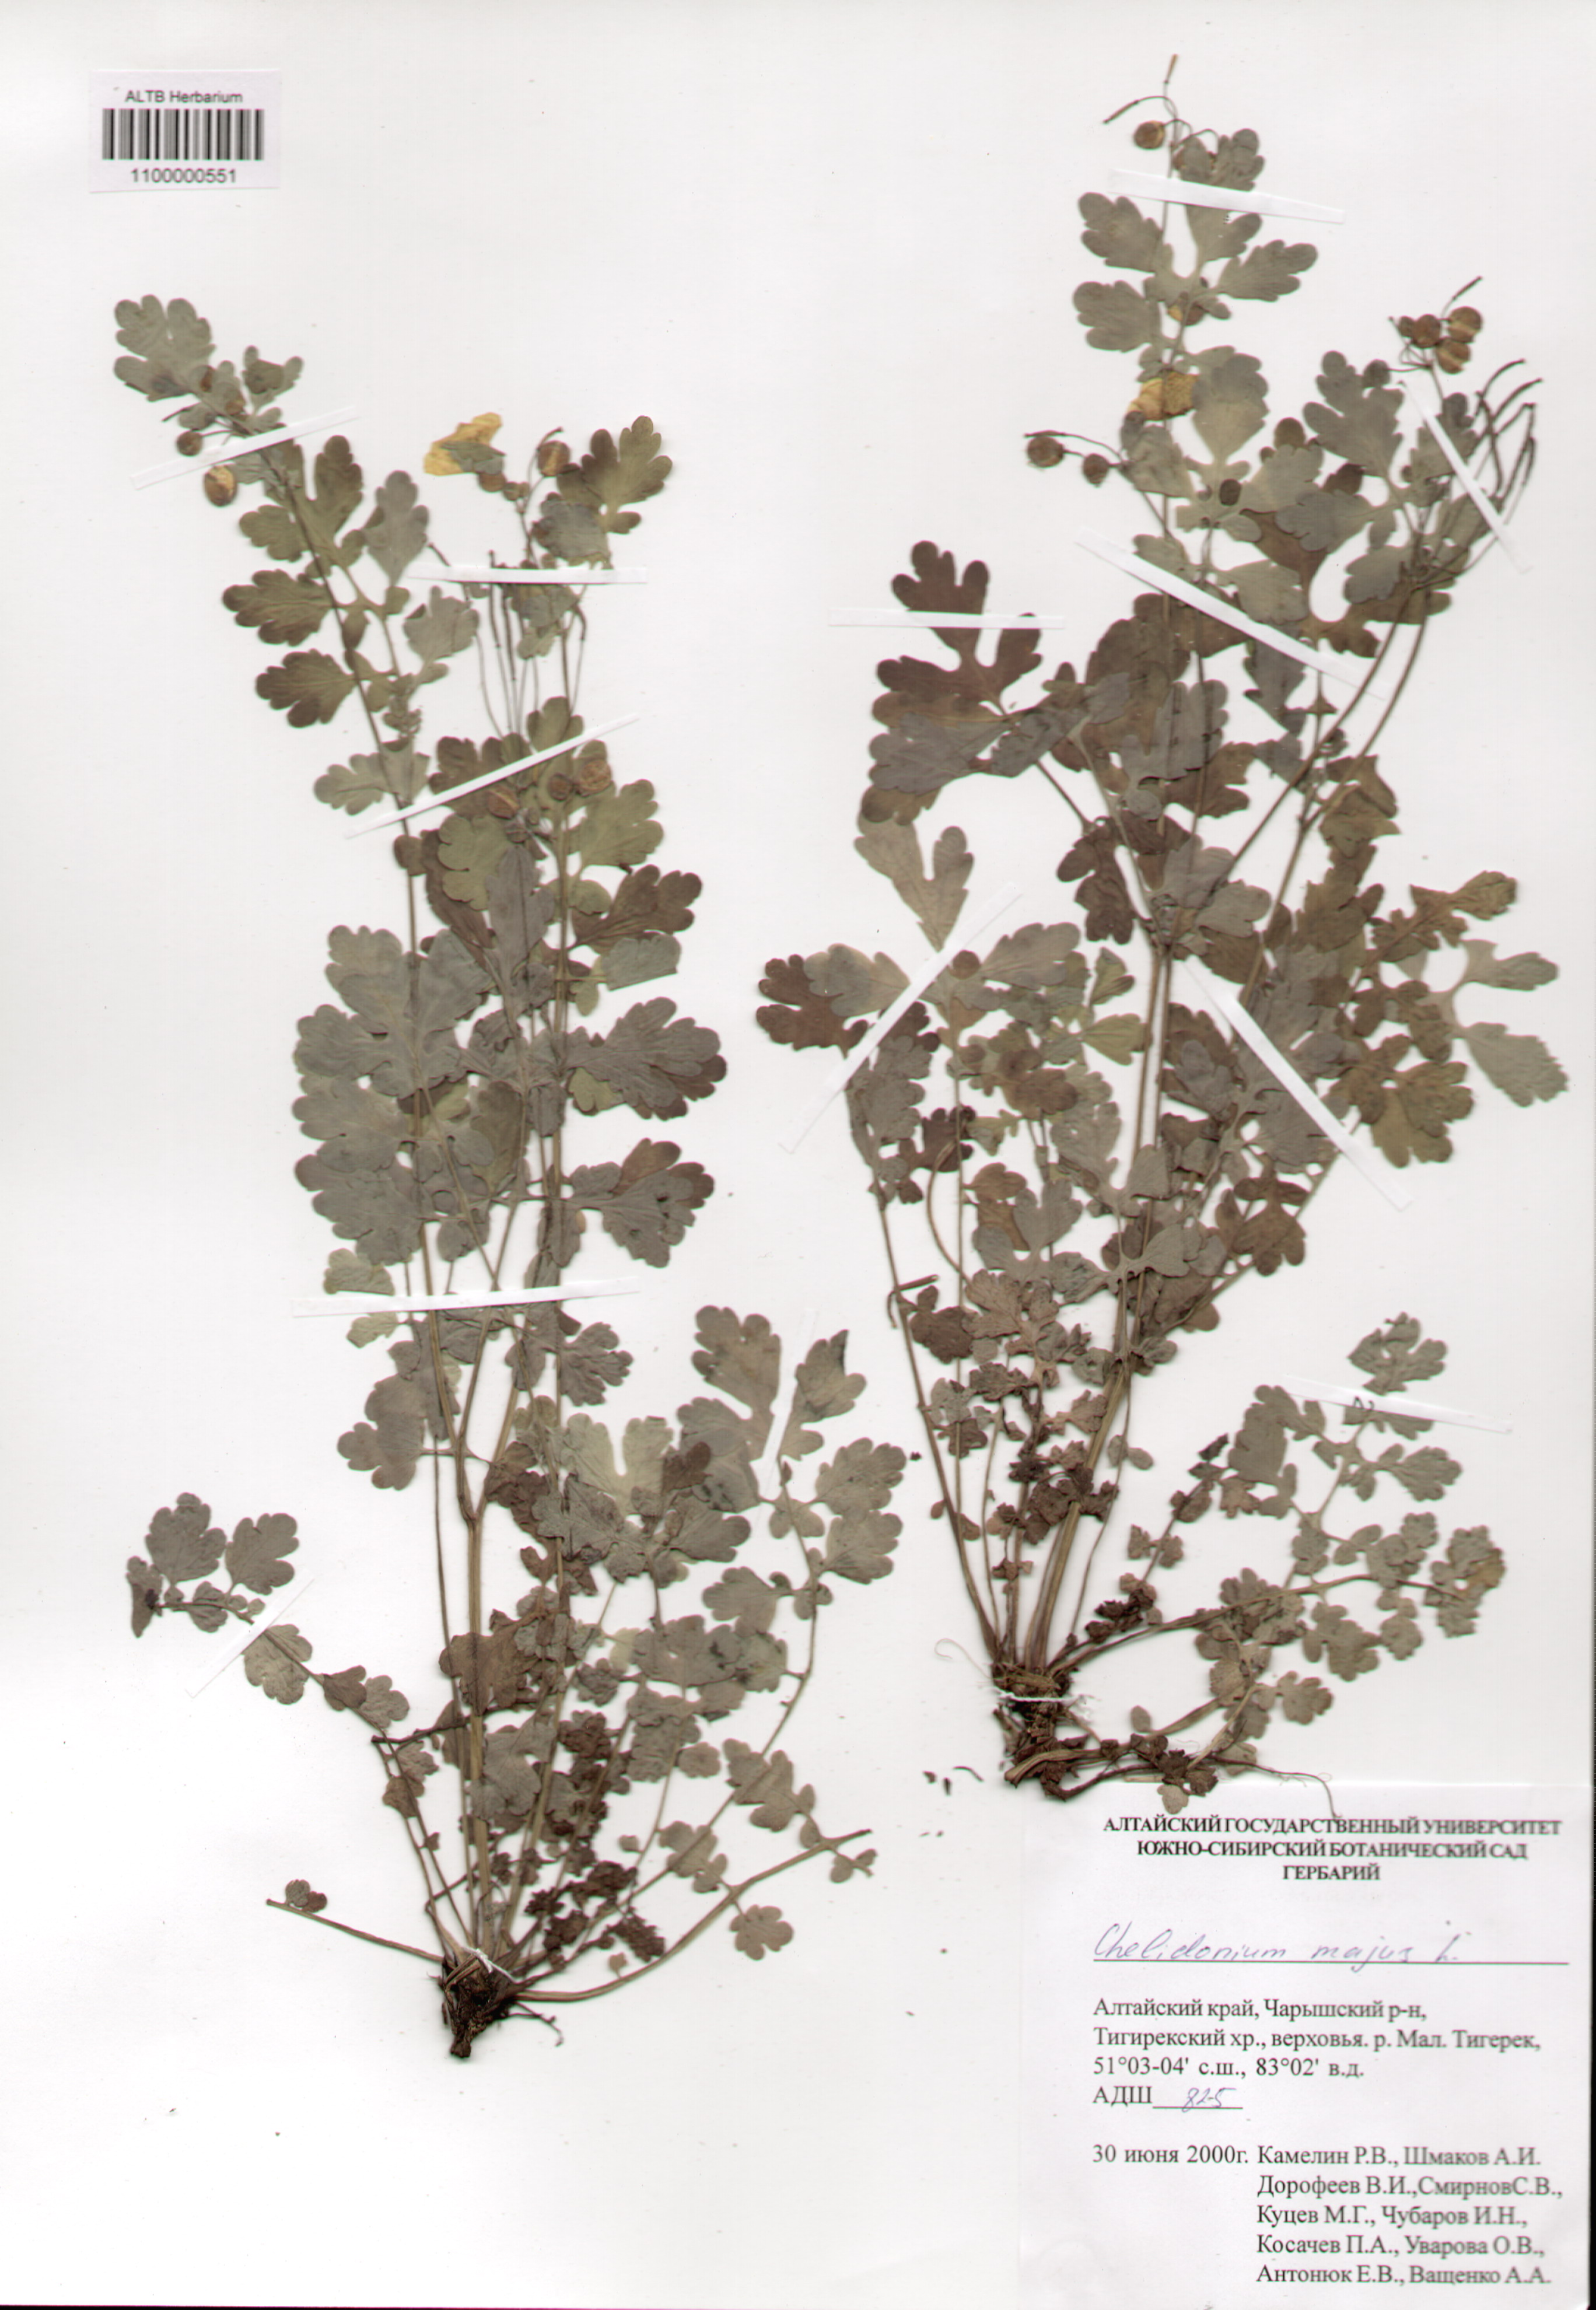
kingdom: Plantae
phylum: Tracheophyta
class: Magnoliopsida
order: Ranunculales
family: Papaveraceae
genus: Chelidonium
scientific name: Chelidonium majus
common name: Greater celandine
